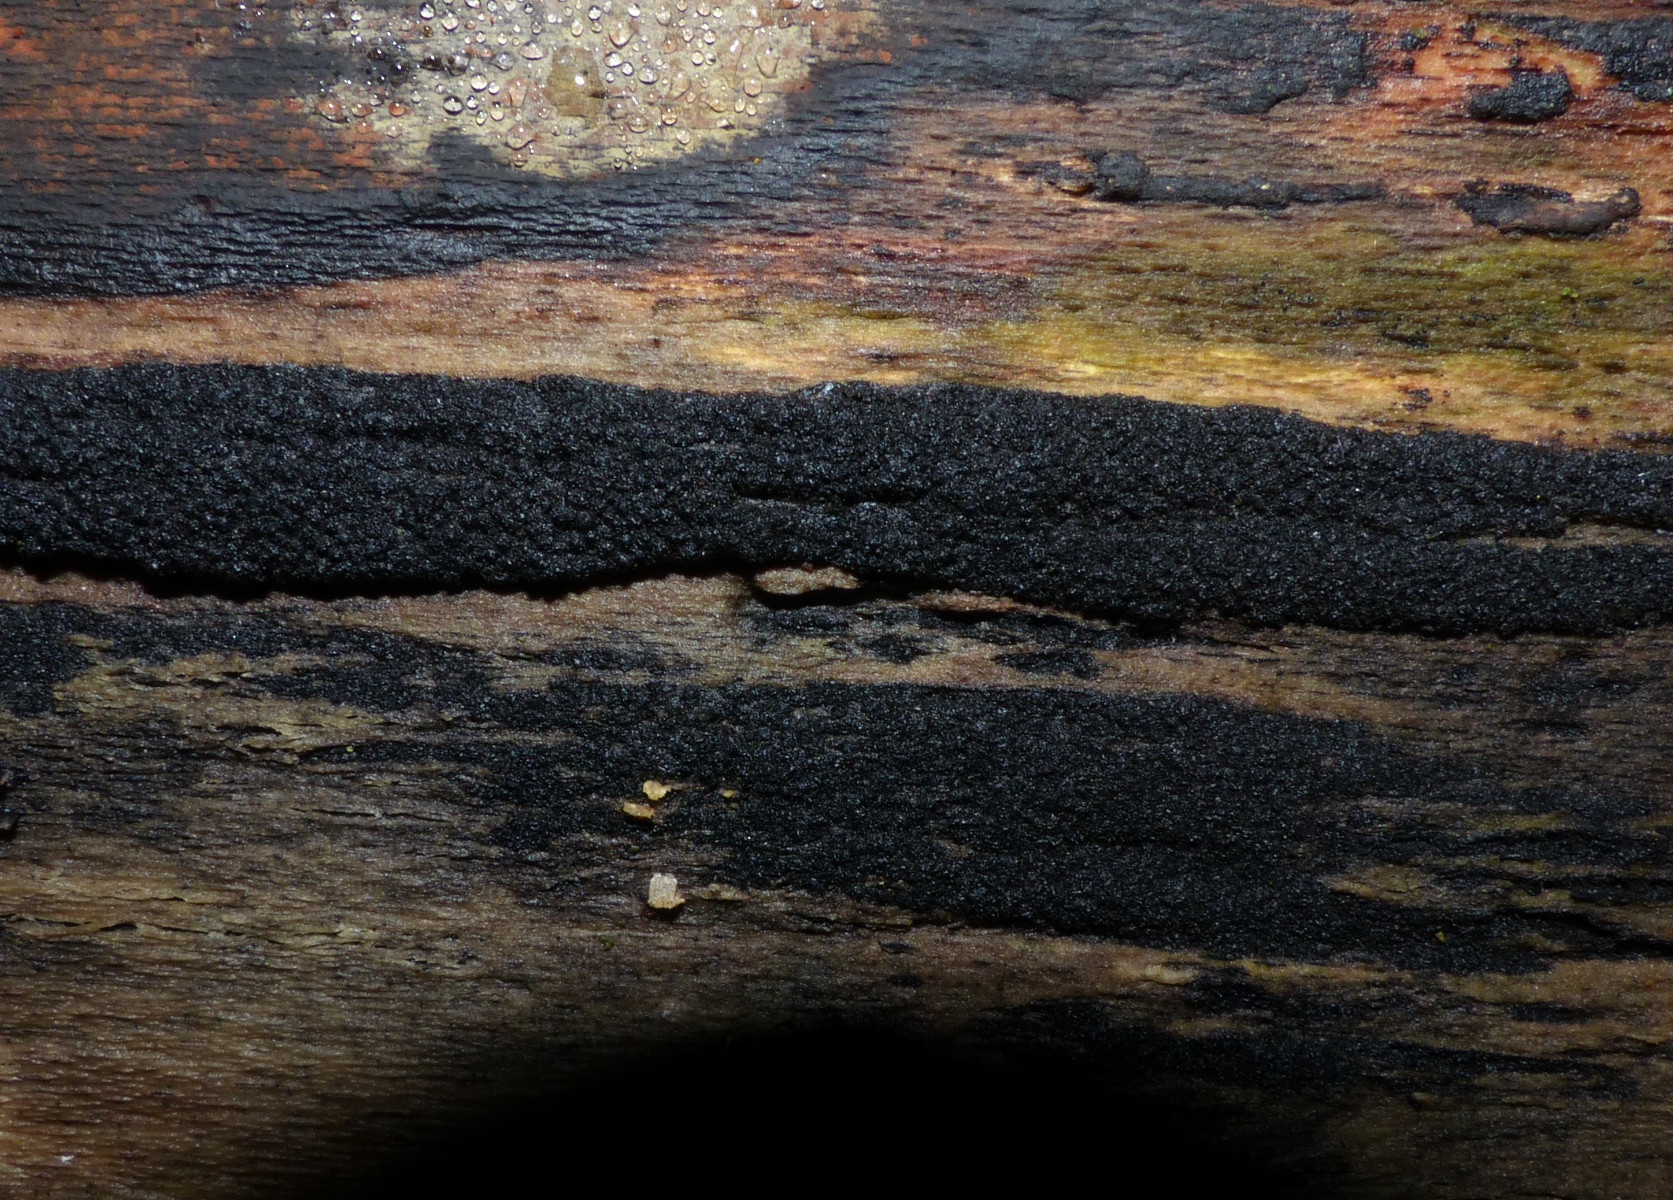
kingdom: Fungi
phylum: Ascomycota
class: Sordariomycetes
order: Xylariales
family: Diatrypaceae
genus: Eutypa
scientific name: Eutypa spinosa
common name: grov kulskorpe
